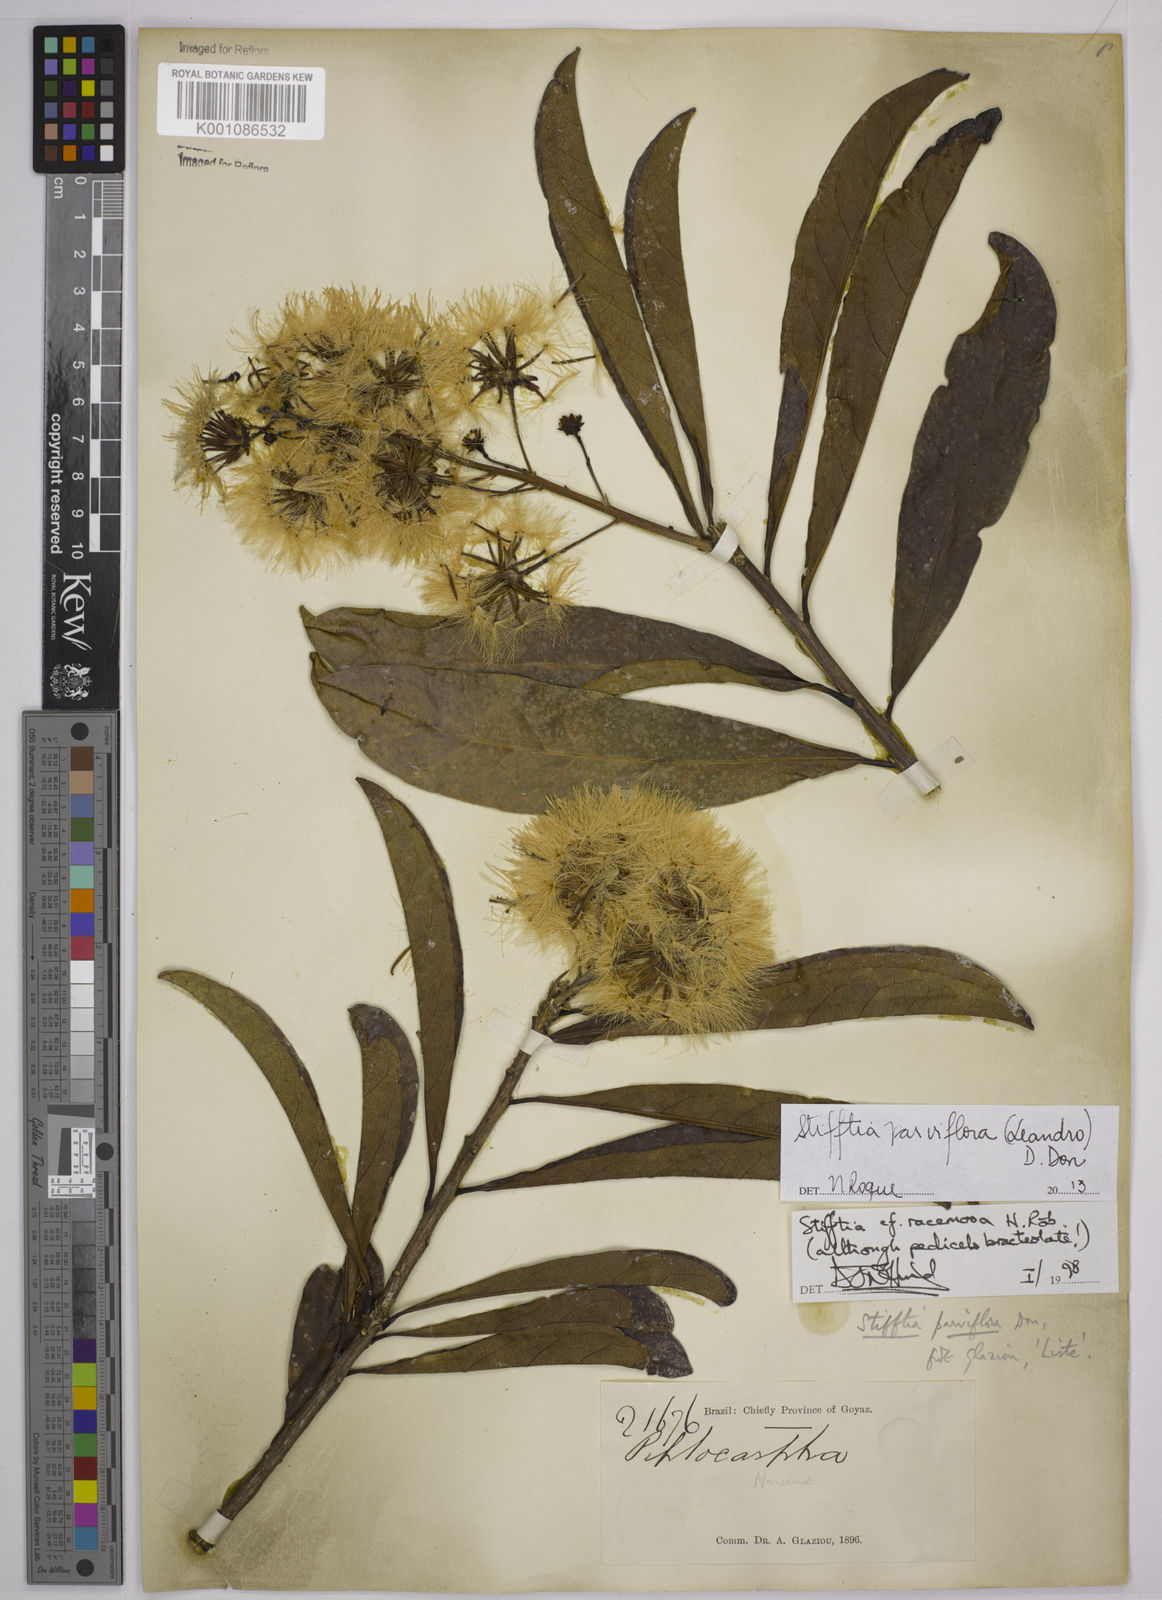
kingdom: Plantae
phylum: Tracheophyta
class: Magnoliopsida
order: Asterales
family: Asteraceae
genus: Stifftia
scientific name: Stifftia parviflora
